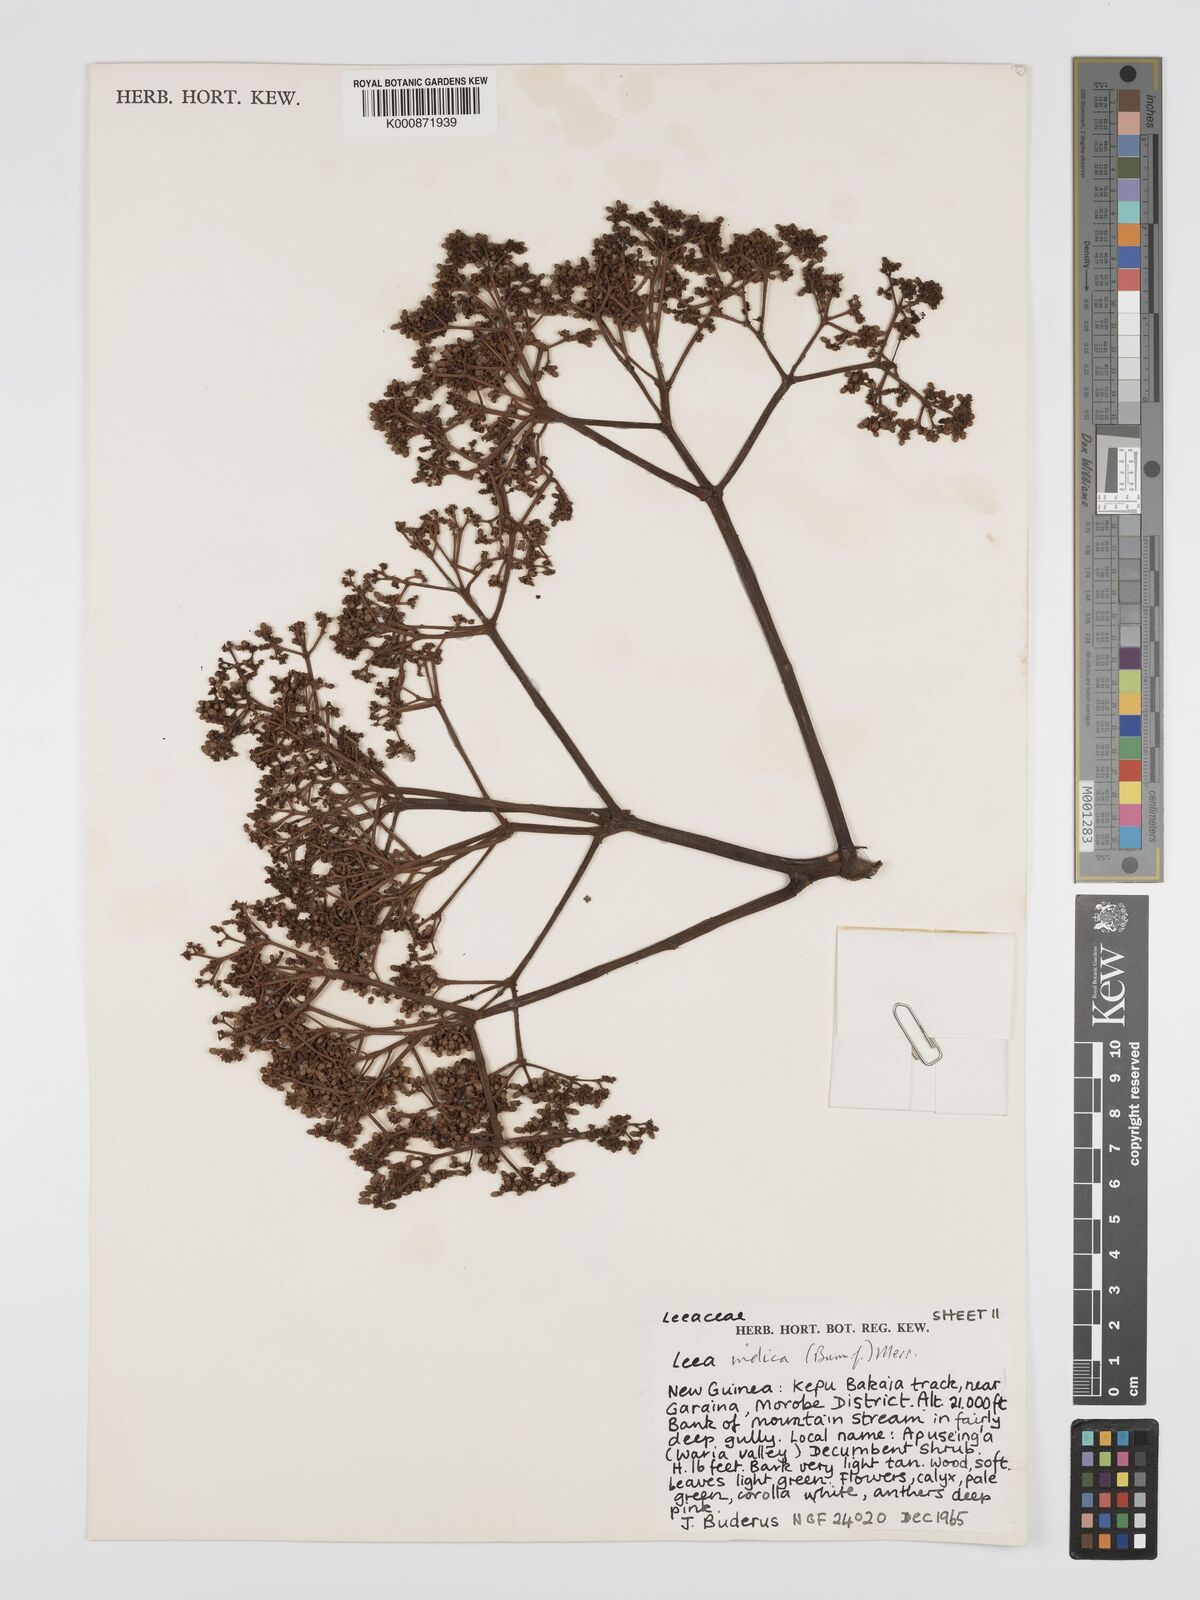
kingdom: Plantae
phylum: Tracheophyta
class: Magnoliopsida
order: Vitales
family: Vitaceae
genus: Leea
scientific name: Leea indica
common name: Bandicoot-berry
